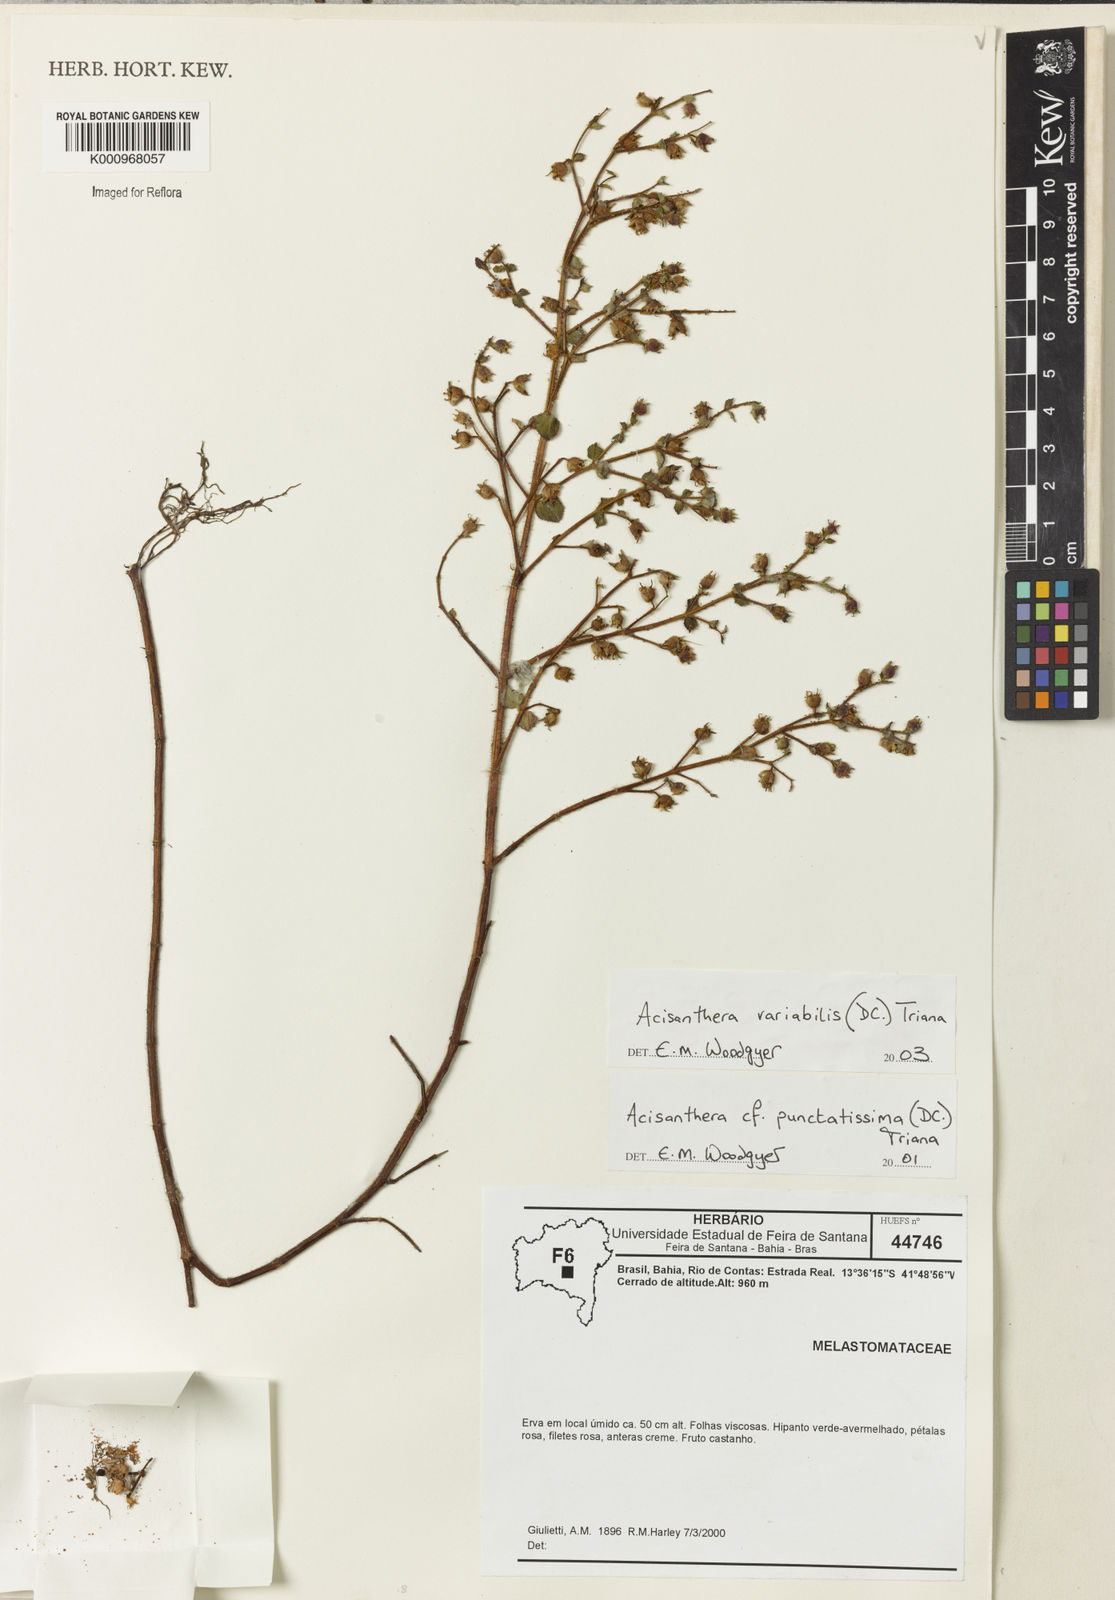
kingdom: Plantae
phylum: Tracheophyta
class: Magnoliopsida
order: Myrtales
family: Melastomataceae
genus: Acisanthera
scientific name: Acisanthera variabilis
